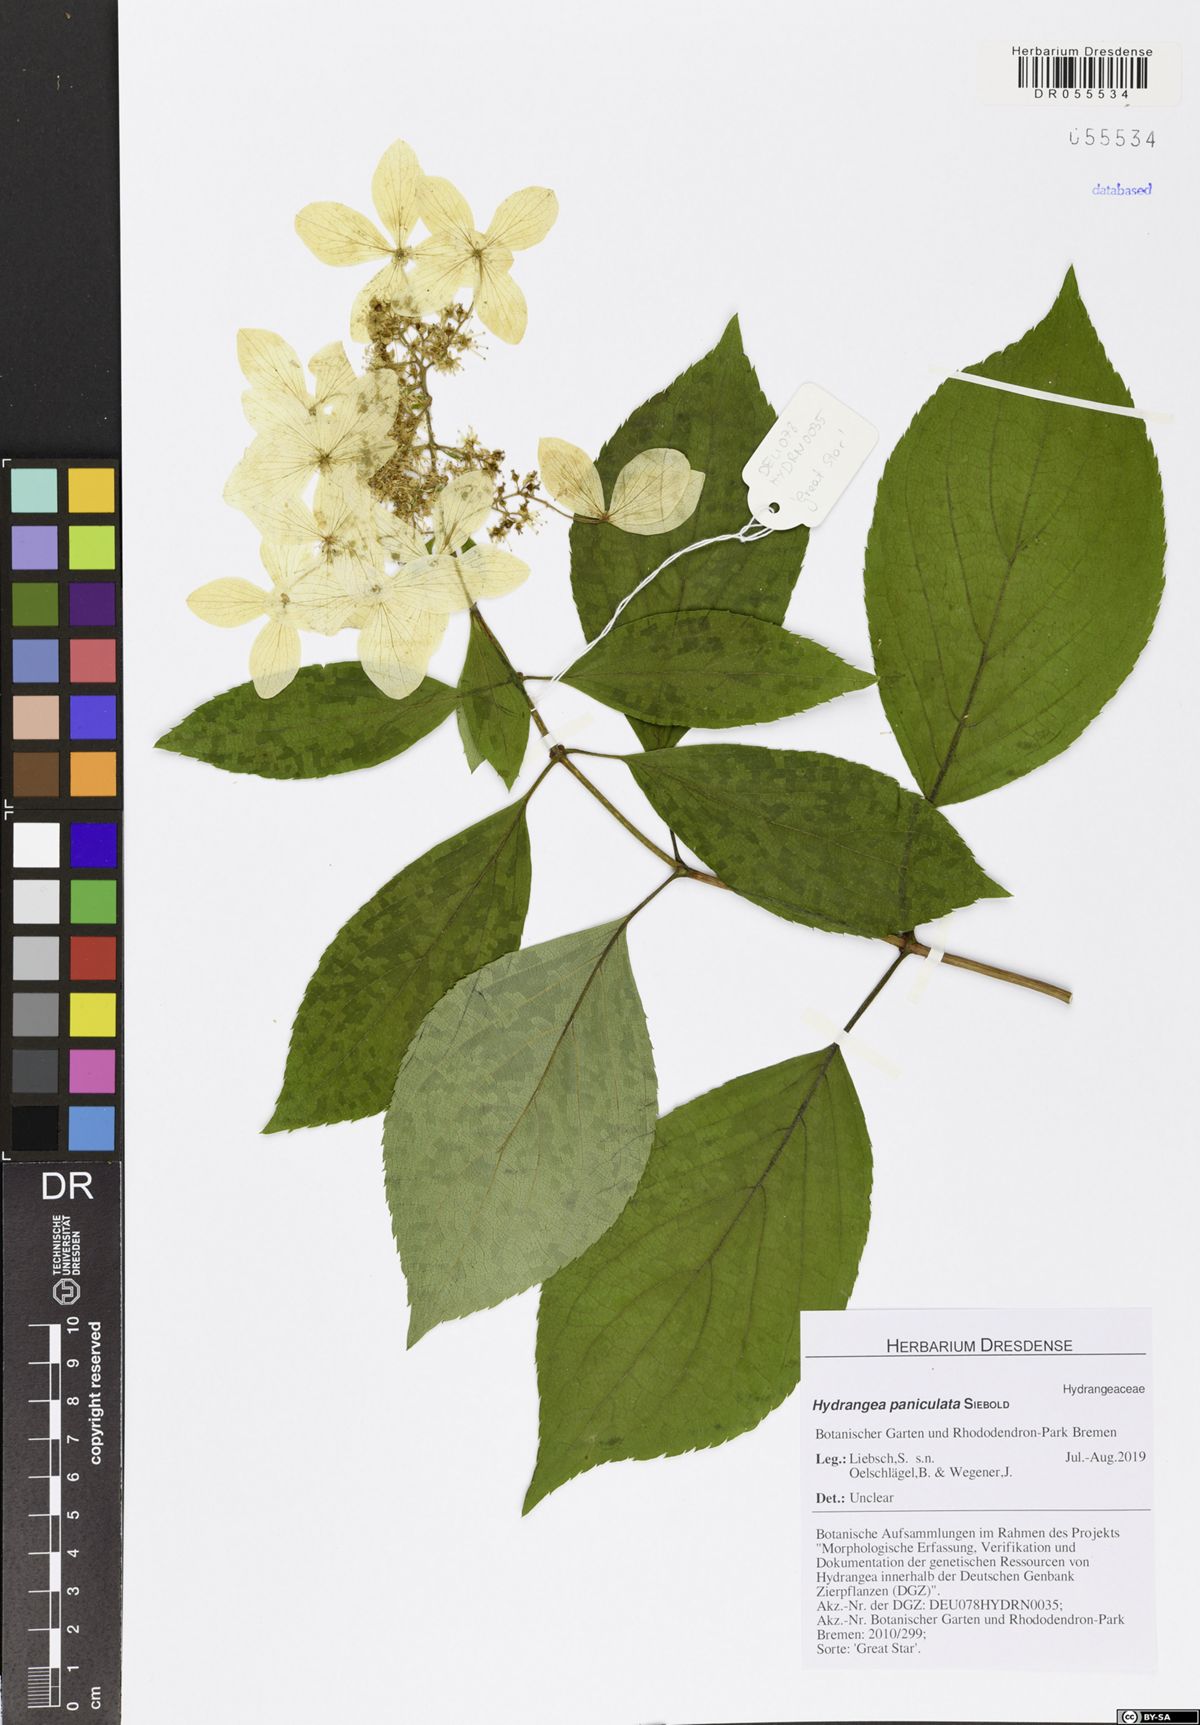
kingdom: Plantae
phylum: Tracheophyta
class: Magnoliopsida
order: Cornales
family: Hydrangeaceae
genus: Hydrangea
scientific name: Hydrangea paniculata
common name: Panicled hydrangea
